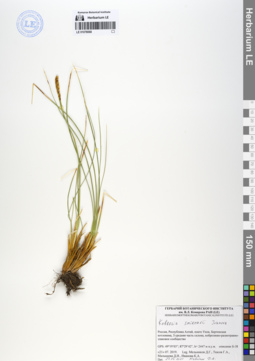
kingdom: Plantae
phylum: Tracheophyta
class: Liliopsida
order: Poales
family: Cyperaceae
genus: Carex
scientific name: Carex borealipolaris
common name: Siberian bog sedge
